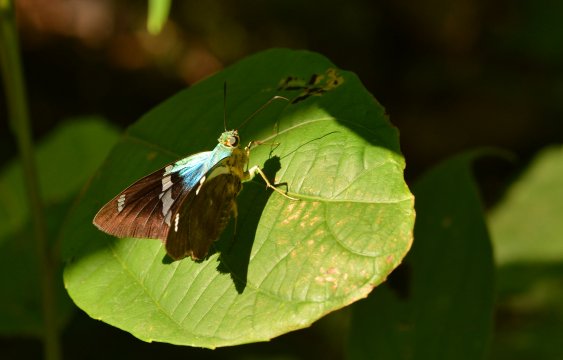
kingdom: Animalia
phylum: Arthropoda
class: Insecta
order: Lepidoptera
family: Hesperiidae
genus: Astraptes
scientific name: Astraptes fulgerator
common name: Two-barred Flasher
